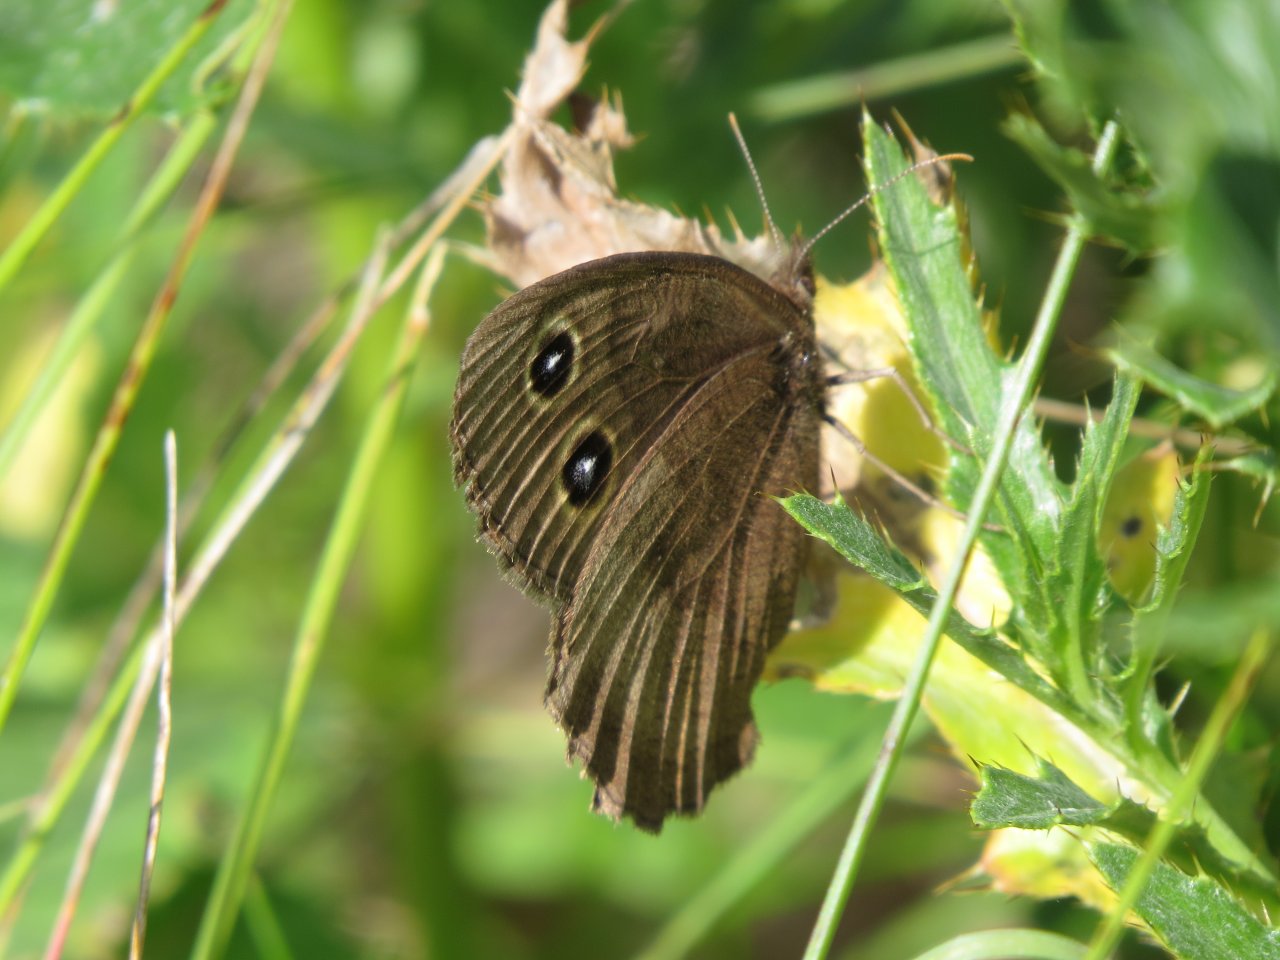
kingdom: Animalia
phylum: Arthropoda
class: Insecta
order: Lepidoptera
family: Nymphalidae
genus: Cercyonis
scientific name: Cercyonis pegala
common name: Common Wood-Nymph
